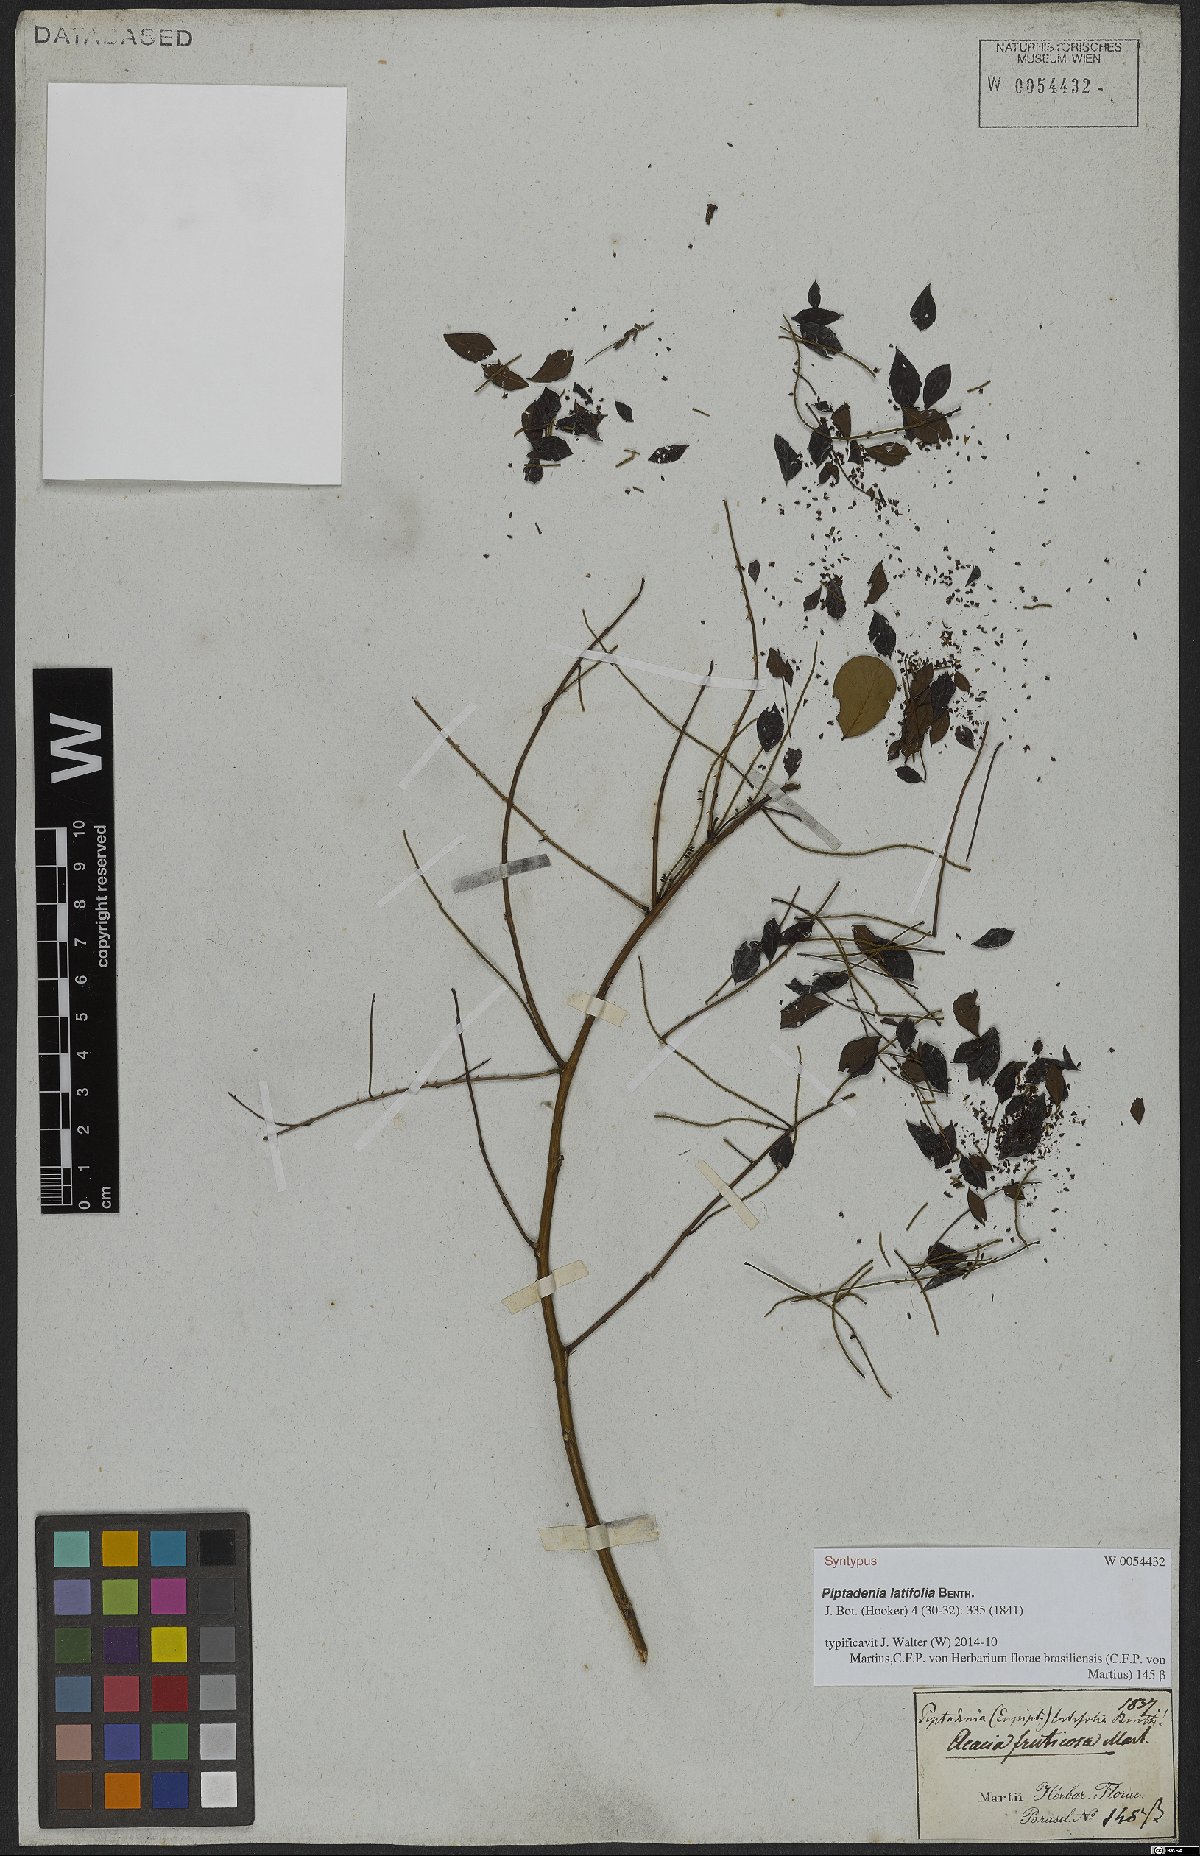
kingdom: Plantae
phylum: Tracheophyta
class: Magnoliopsida
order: Fabales
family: Fabaceae
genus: Piptadenia
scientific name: Piptadenia adiantoides
